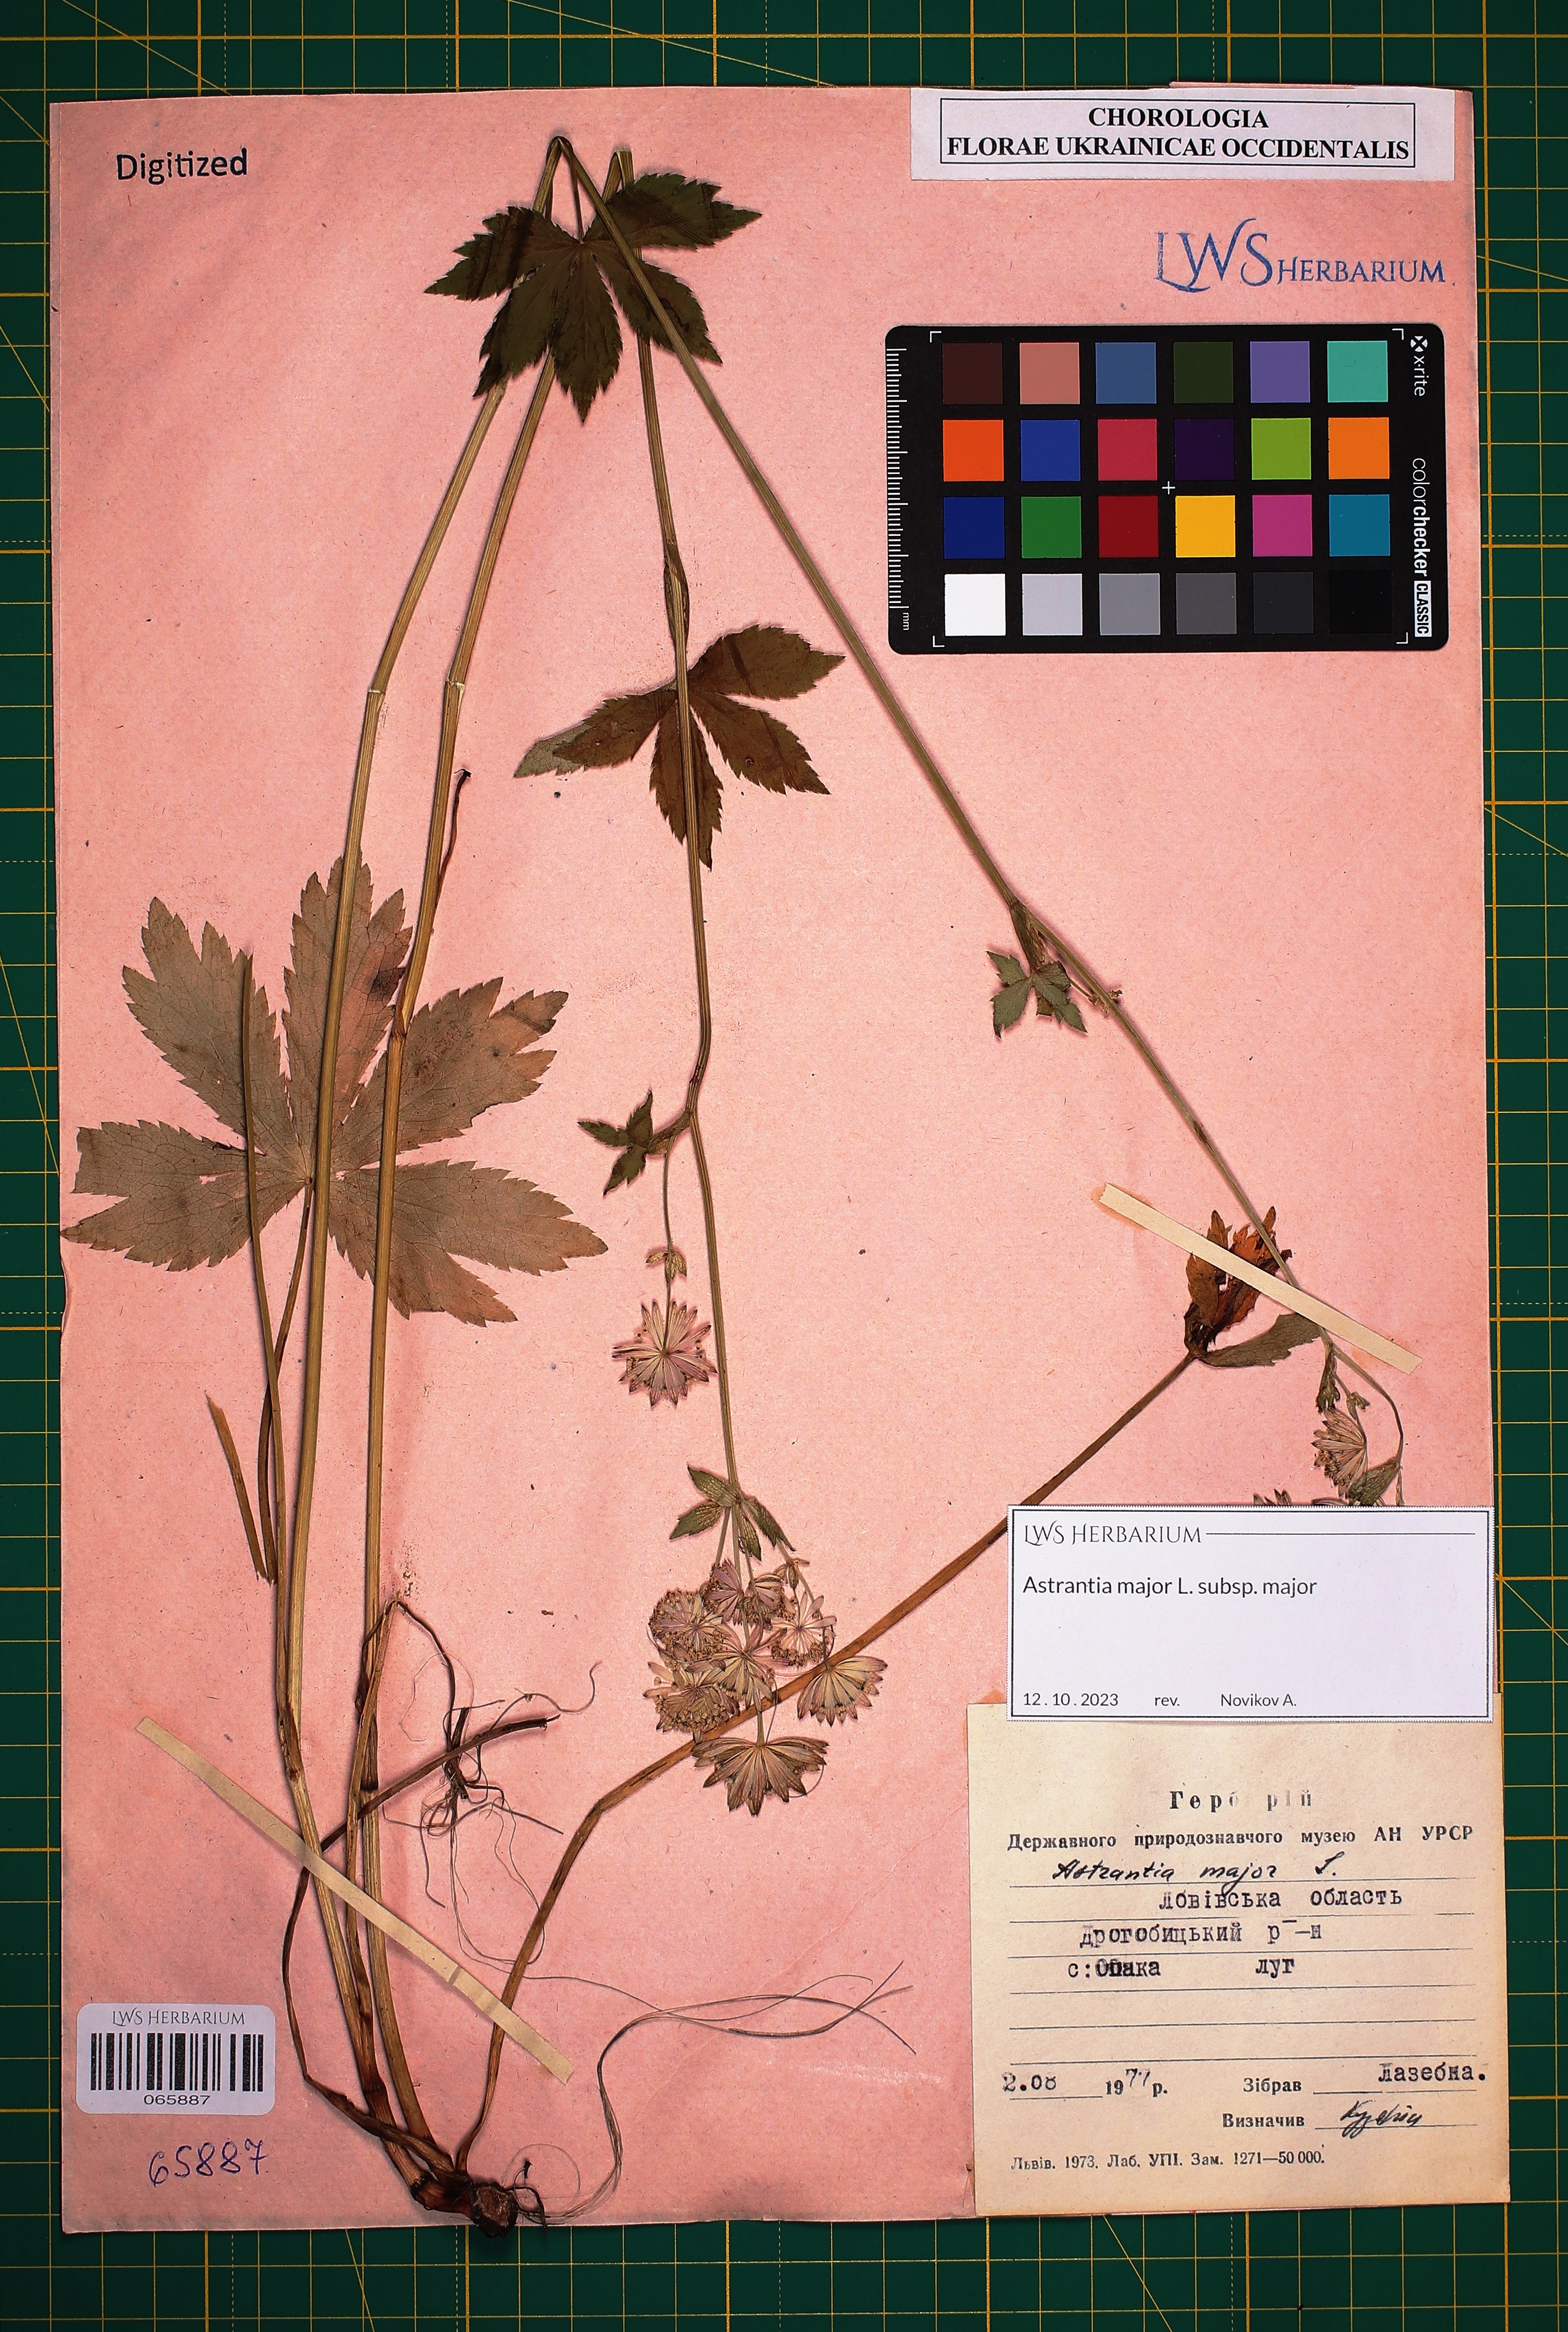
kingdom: Plantae
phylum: Tracheophyta
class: Magnoliopsida
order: Apiales
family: Apiaceae
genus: Astrantia
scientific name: Astrantia major
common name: Greater masterwort
